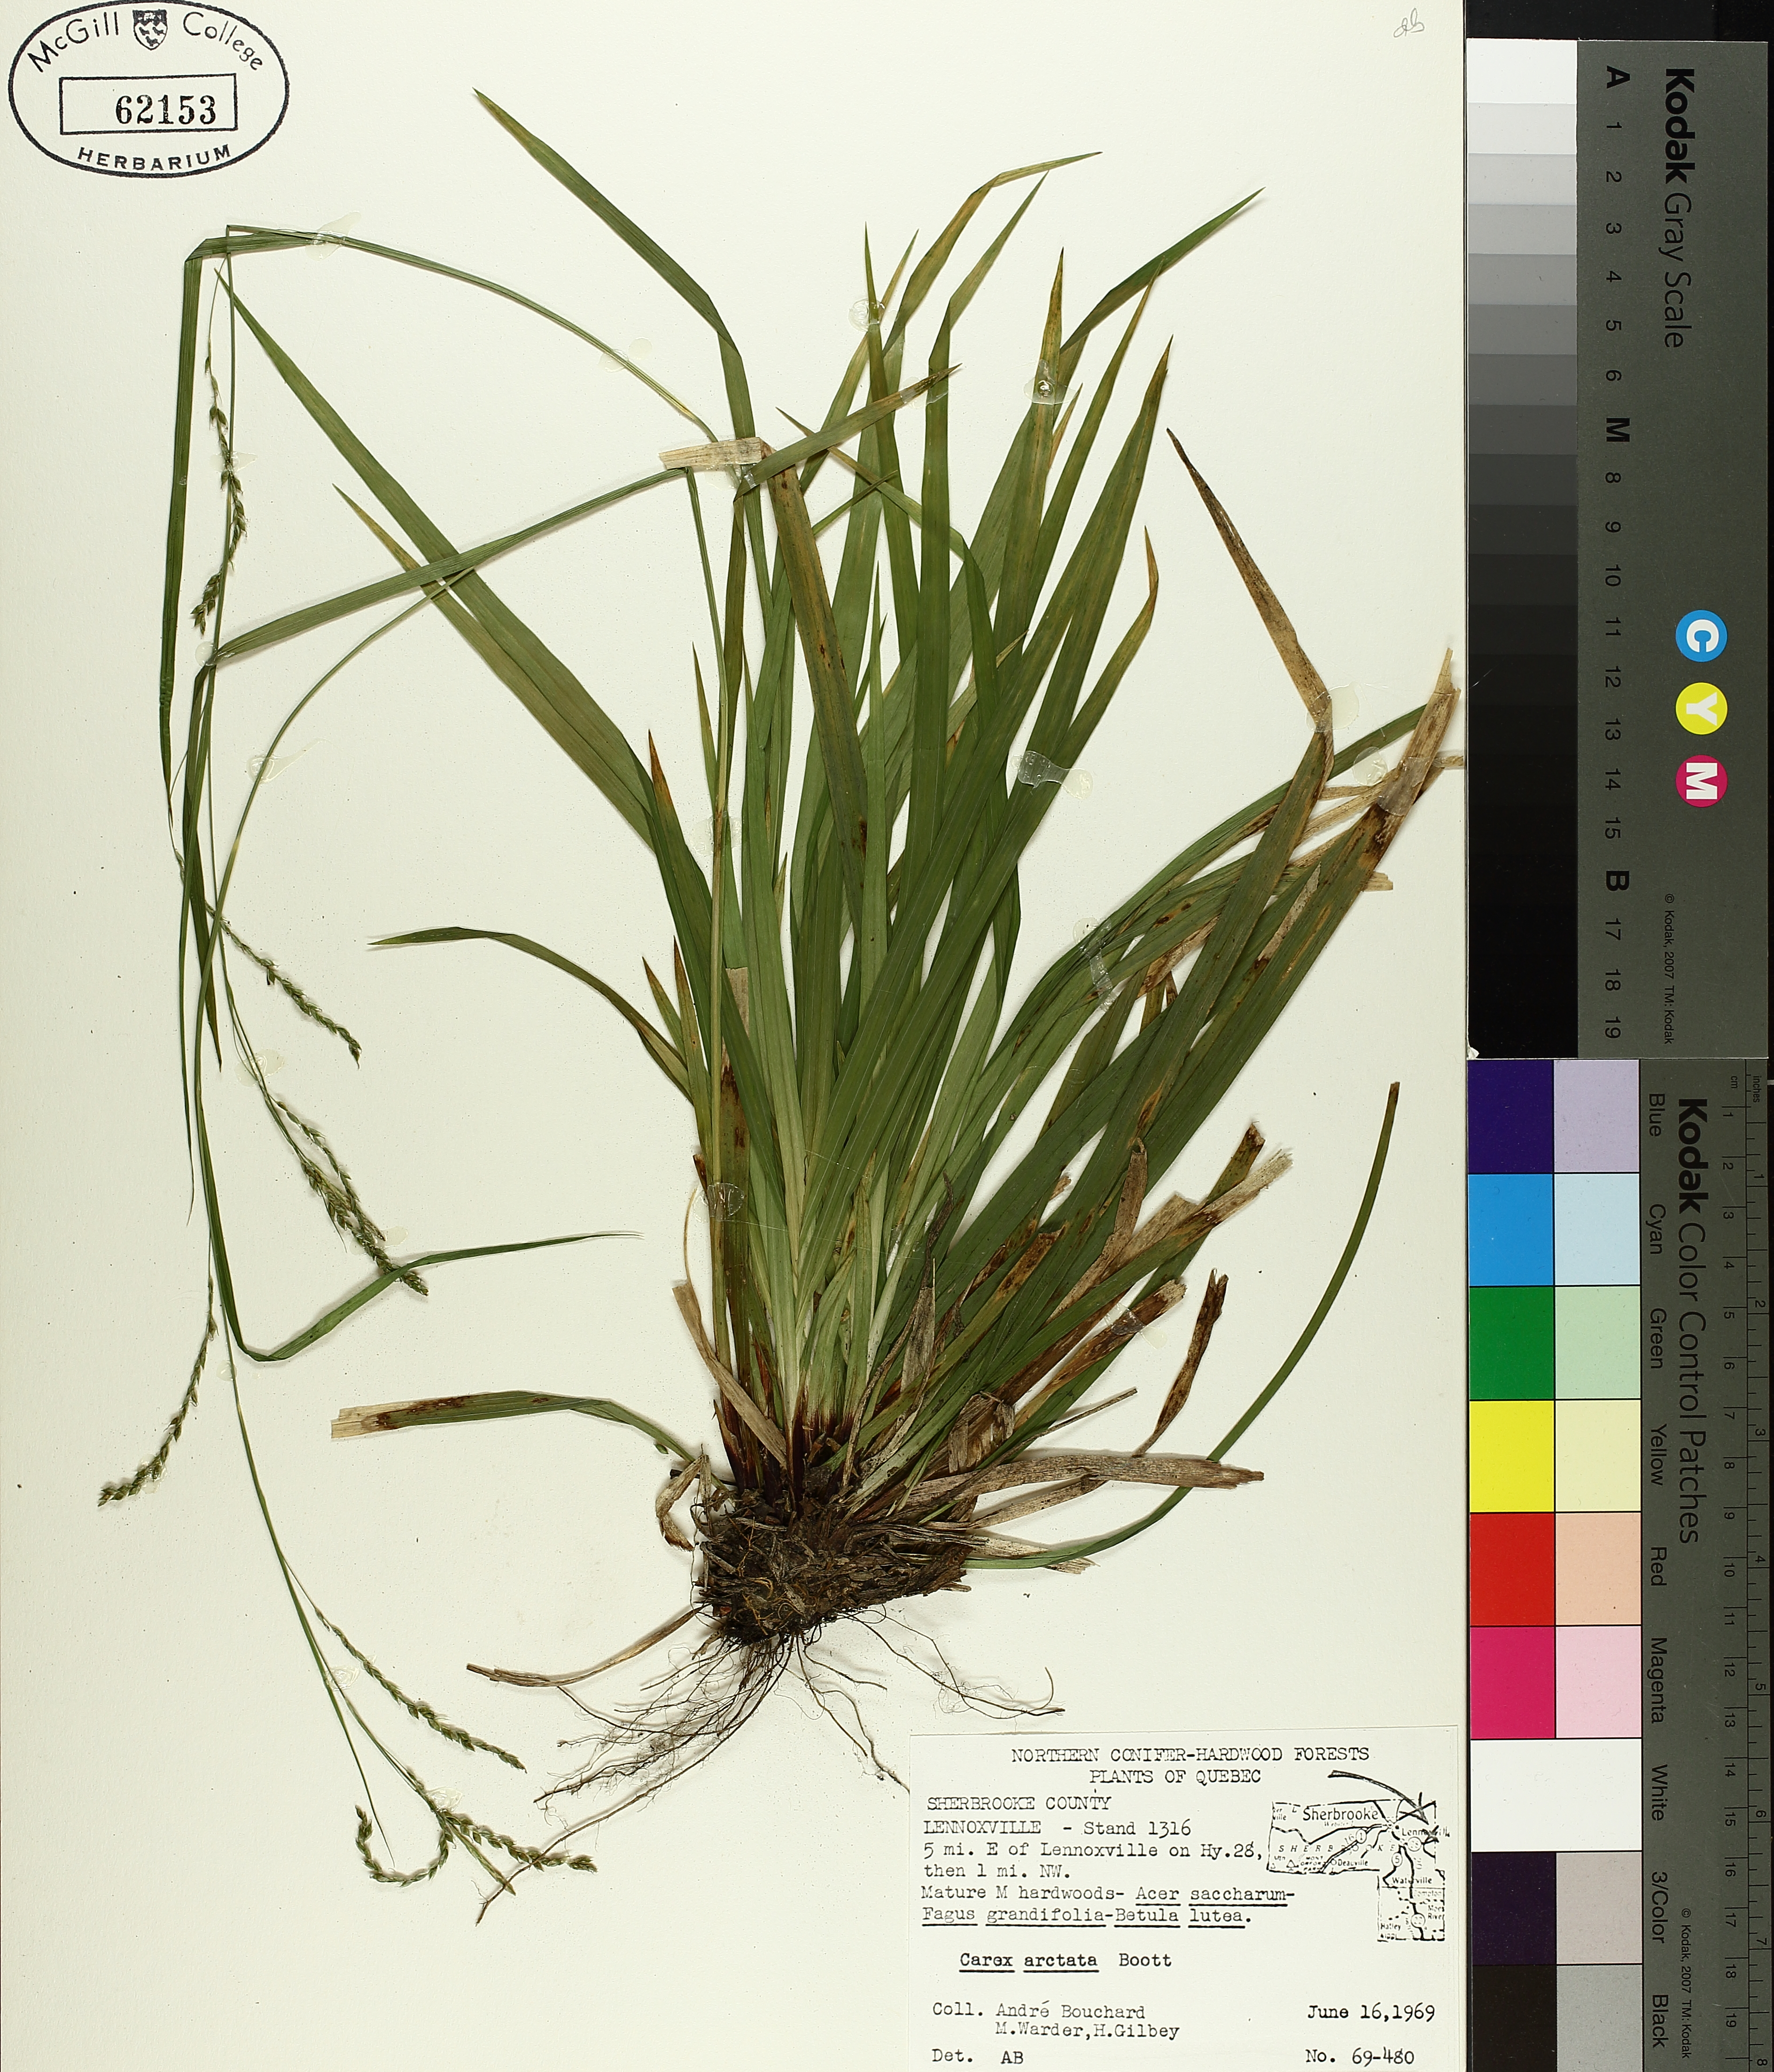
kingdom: Plantae
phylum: Tracheophyta
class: Liliopsida
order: Poales
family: Cyperaceae
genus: Carex
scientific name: Carex arctata
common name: Black sedge
